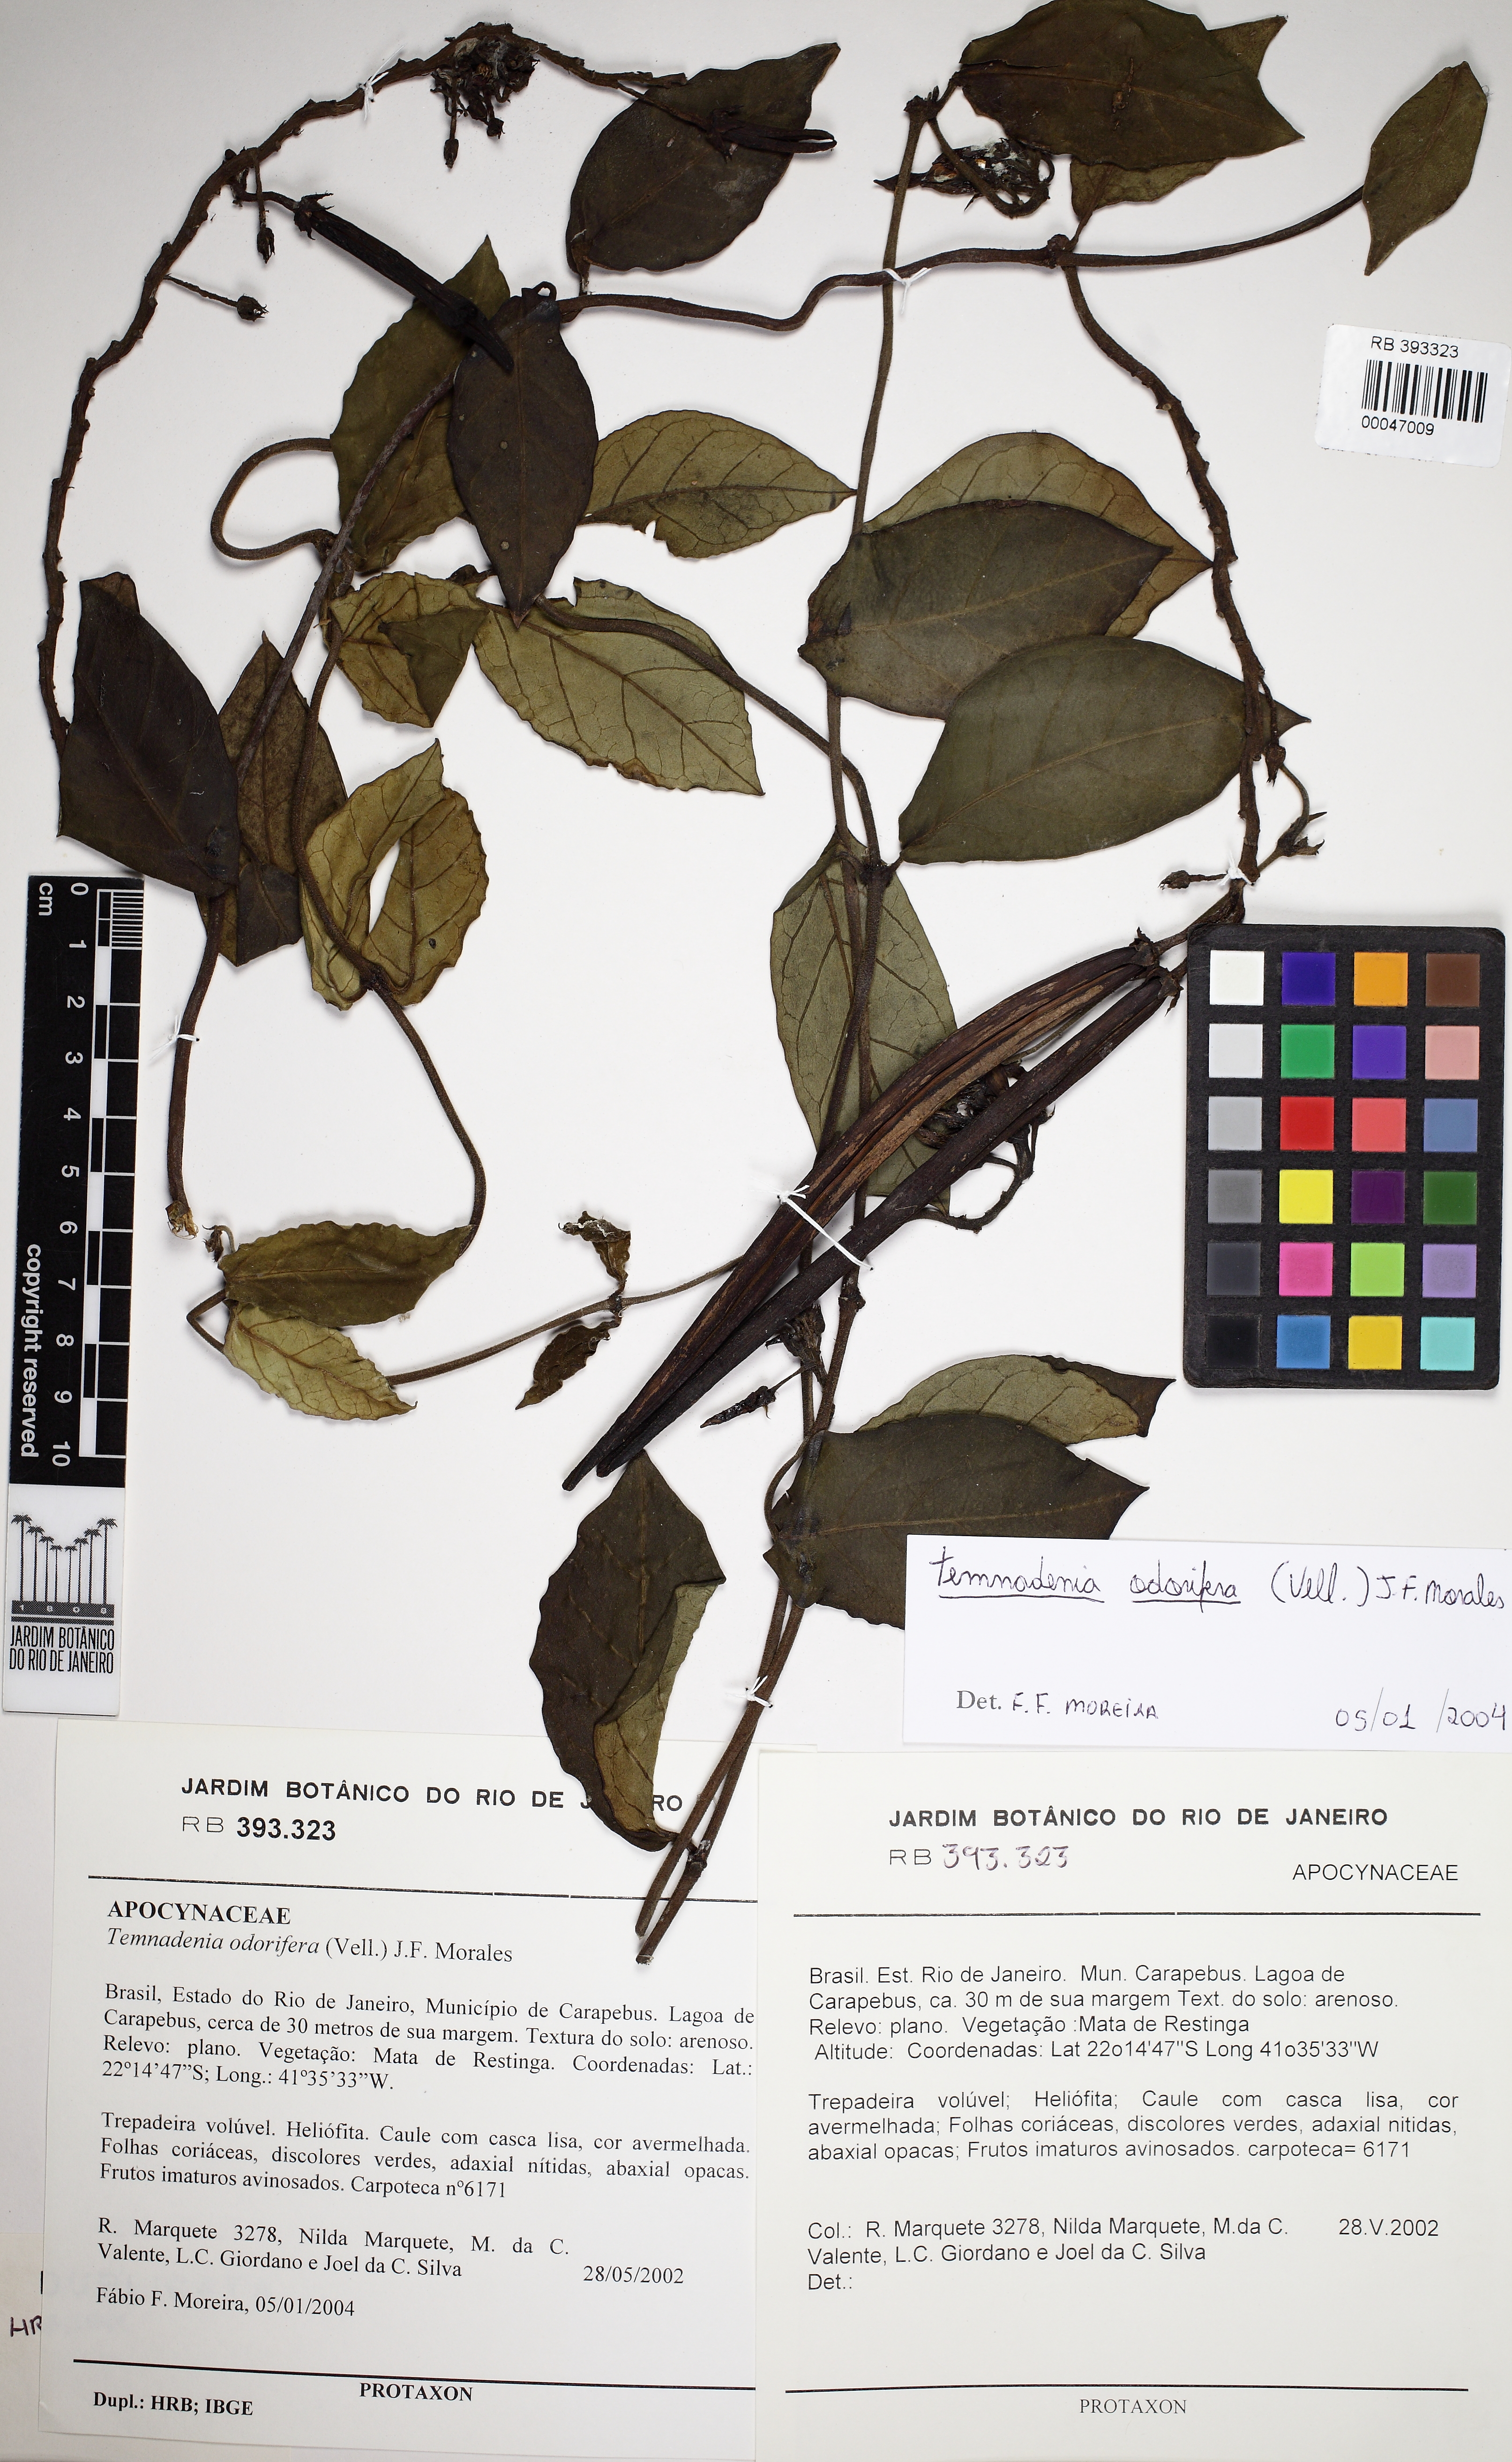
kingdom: Plantae
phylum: Tracheophyta
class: Magnoliopsida
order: Gentianales
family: Apocynaceae
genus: Temnadenia
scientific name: Temnadenia odorifera
